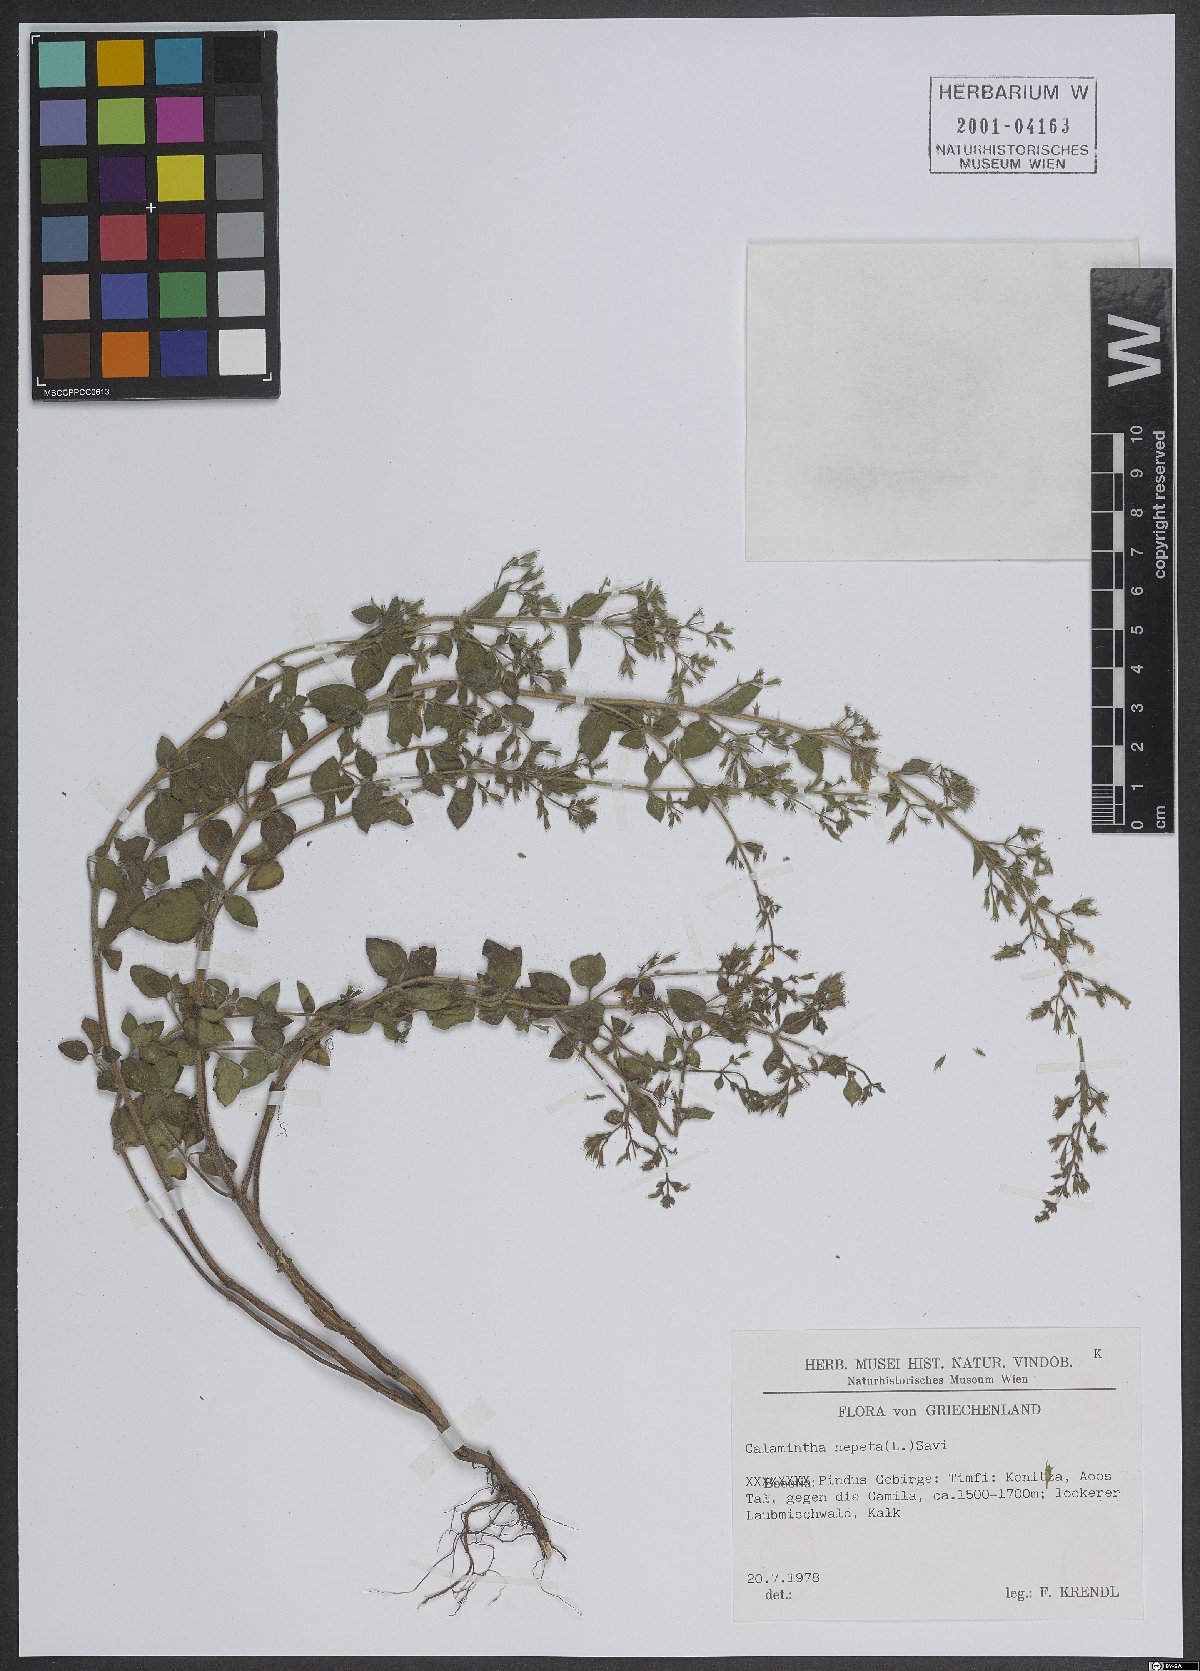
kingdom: Plantae
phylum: Tracheophyta
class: Magnoliopsida
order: Lamiales
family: Lamiaceae
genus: Clinopodium
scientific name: Clinopodium nepeta
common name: Lesser calamint
